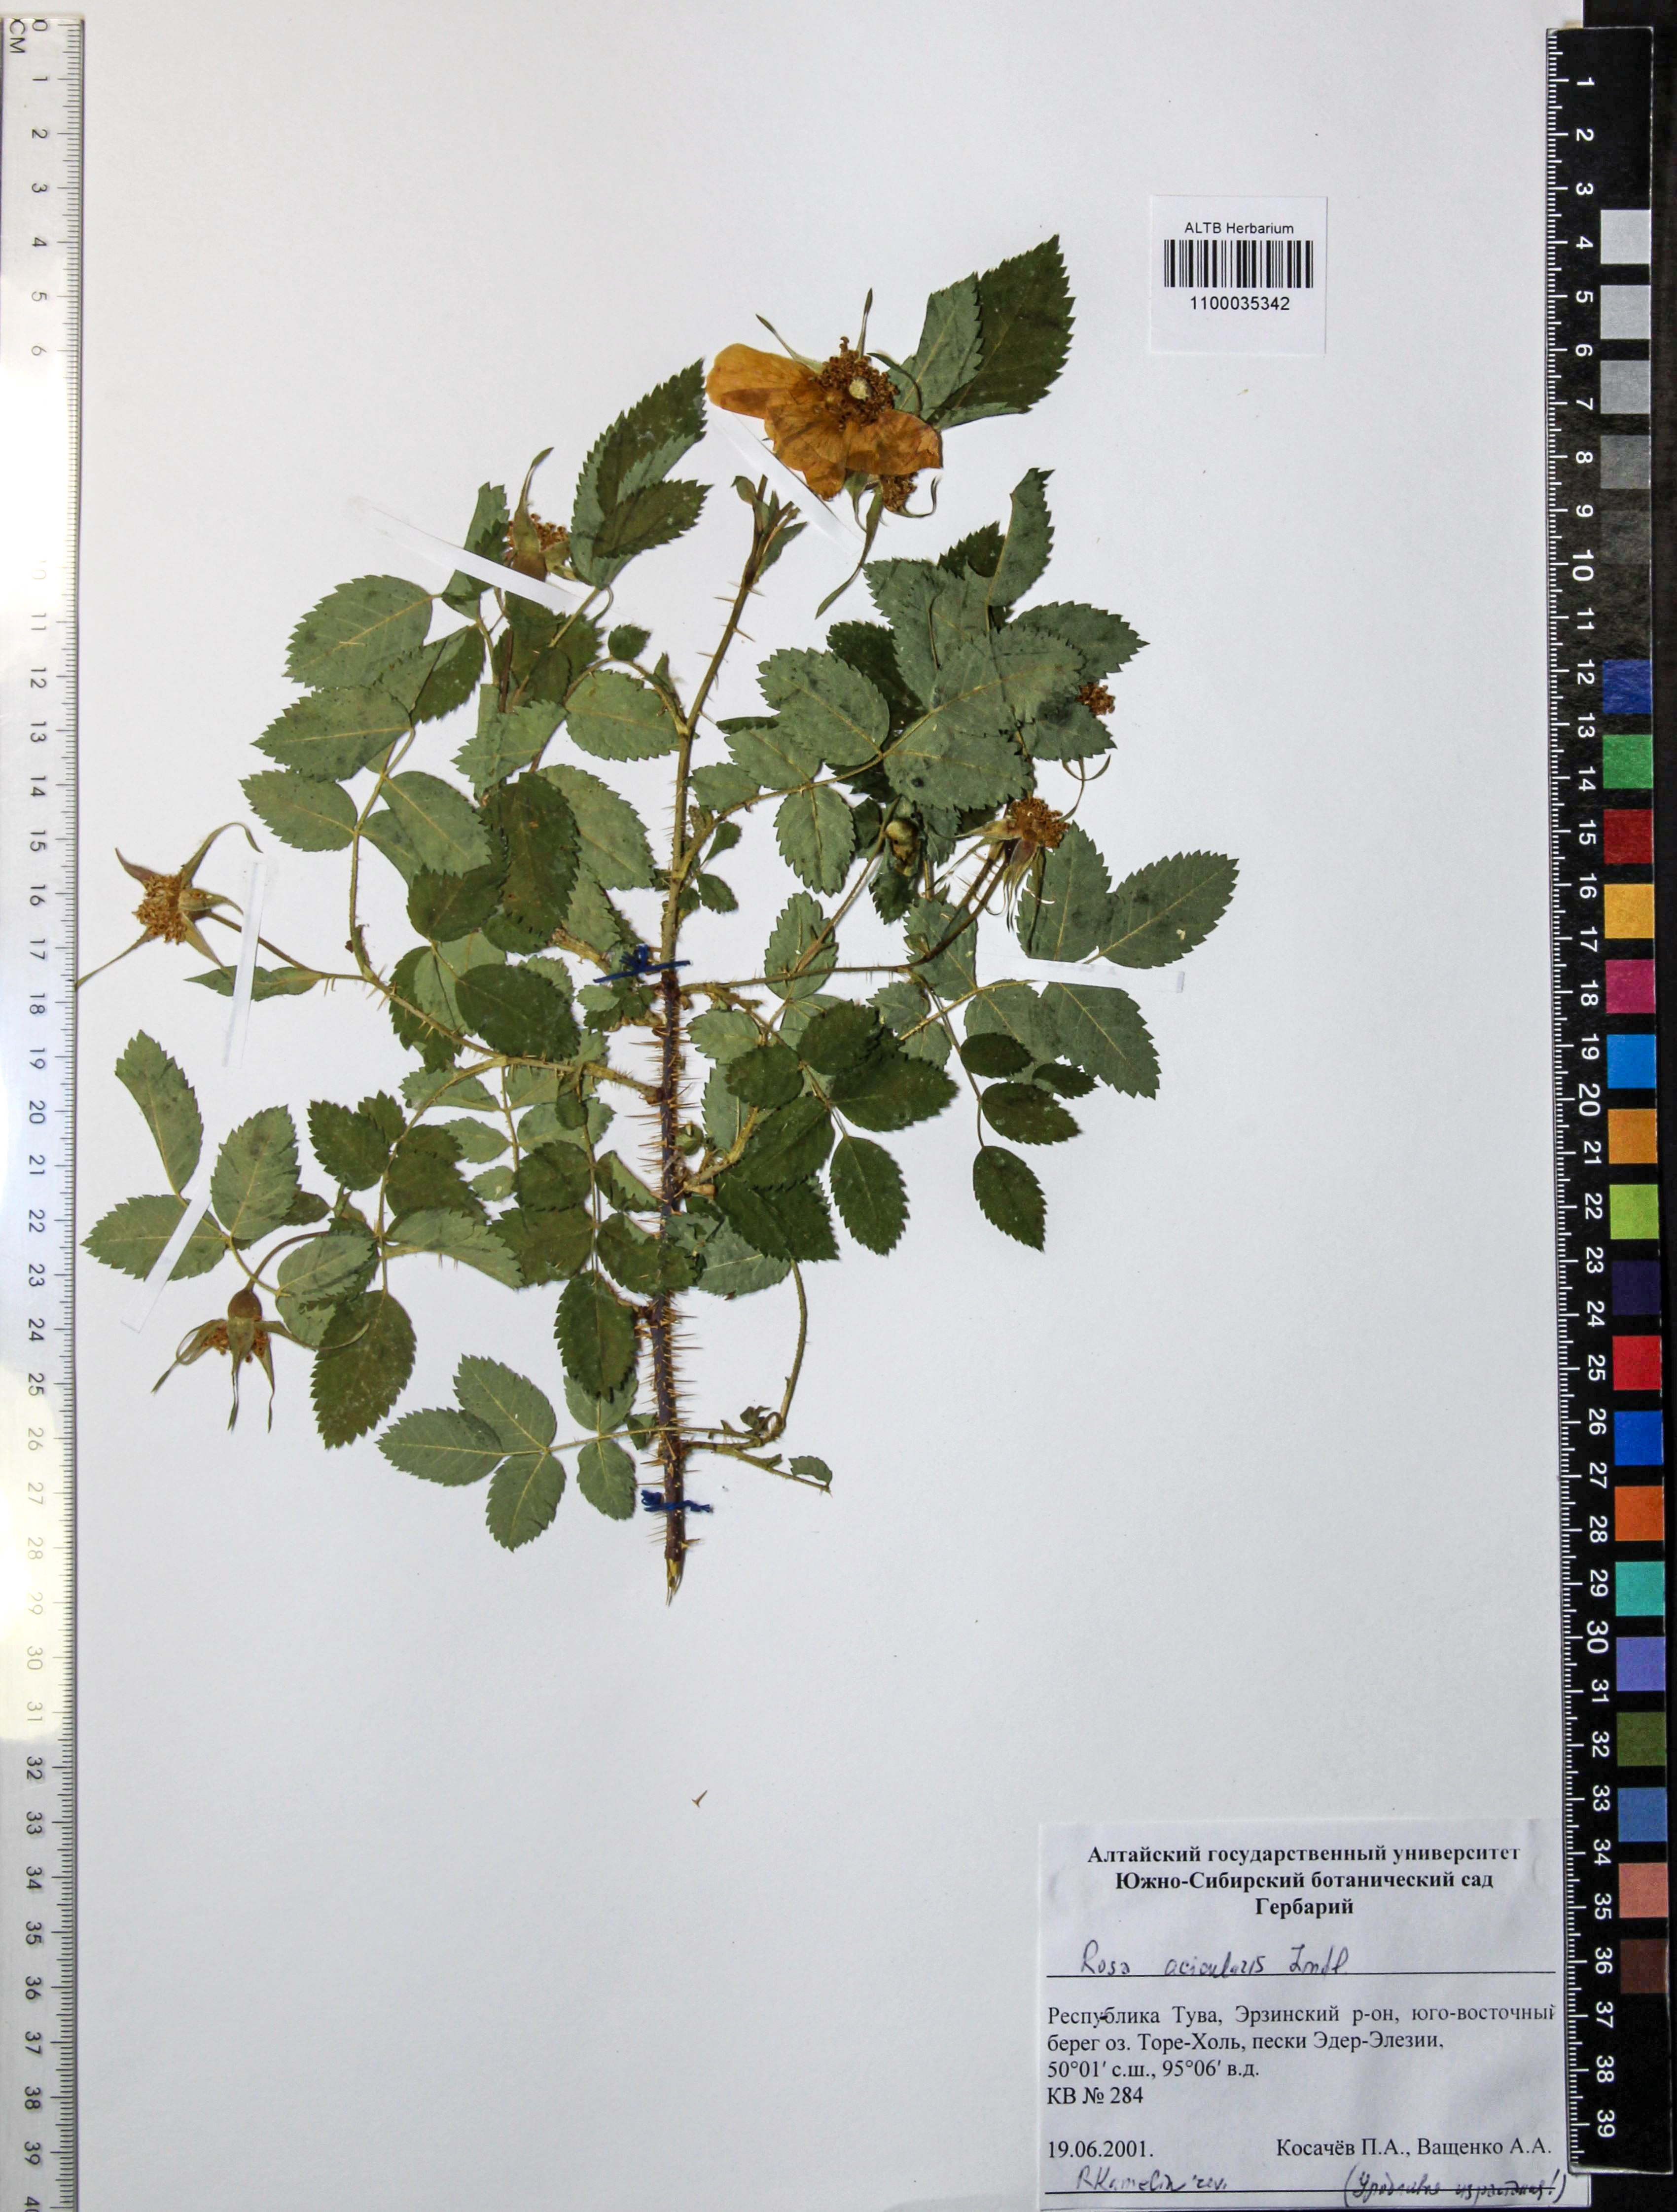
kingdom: Plantae
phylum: Tracheophyta
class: Magnoliopsida
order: Rosales
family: Rosaceae
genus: Rosa
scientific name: Rosa acicularis
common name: Prickly rose
